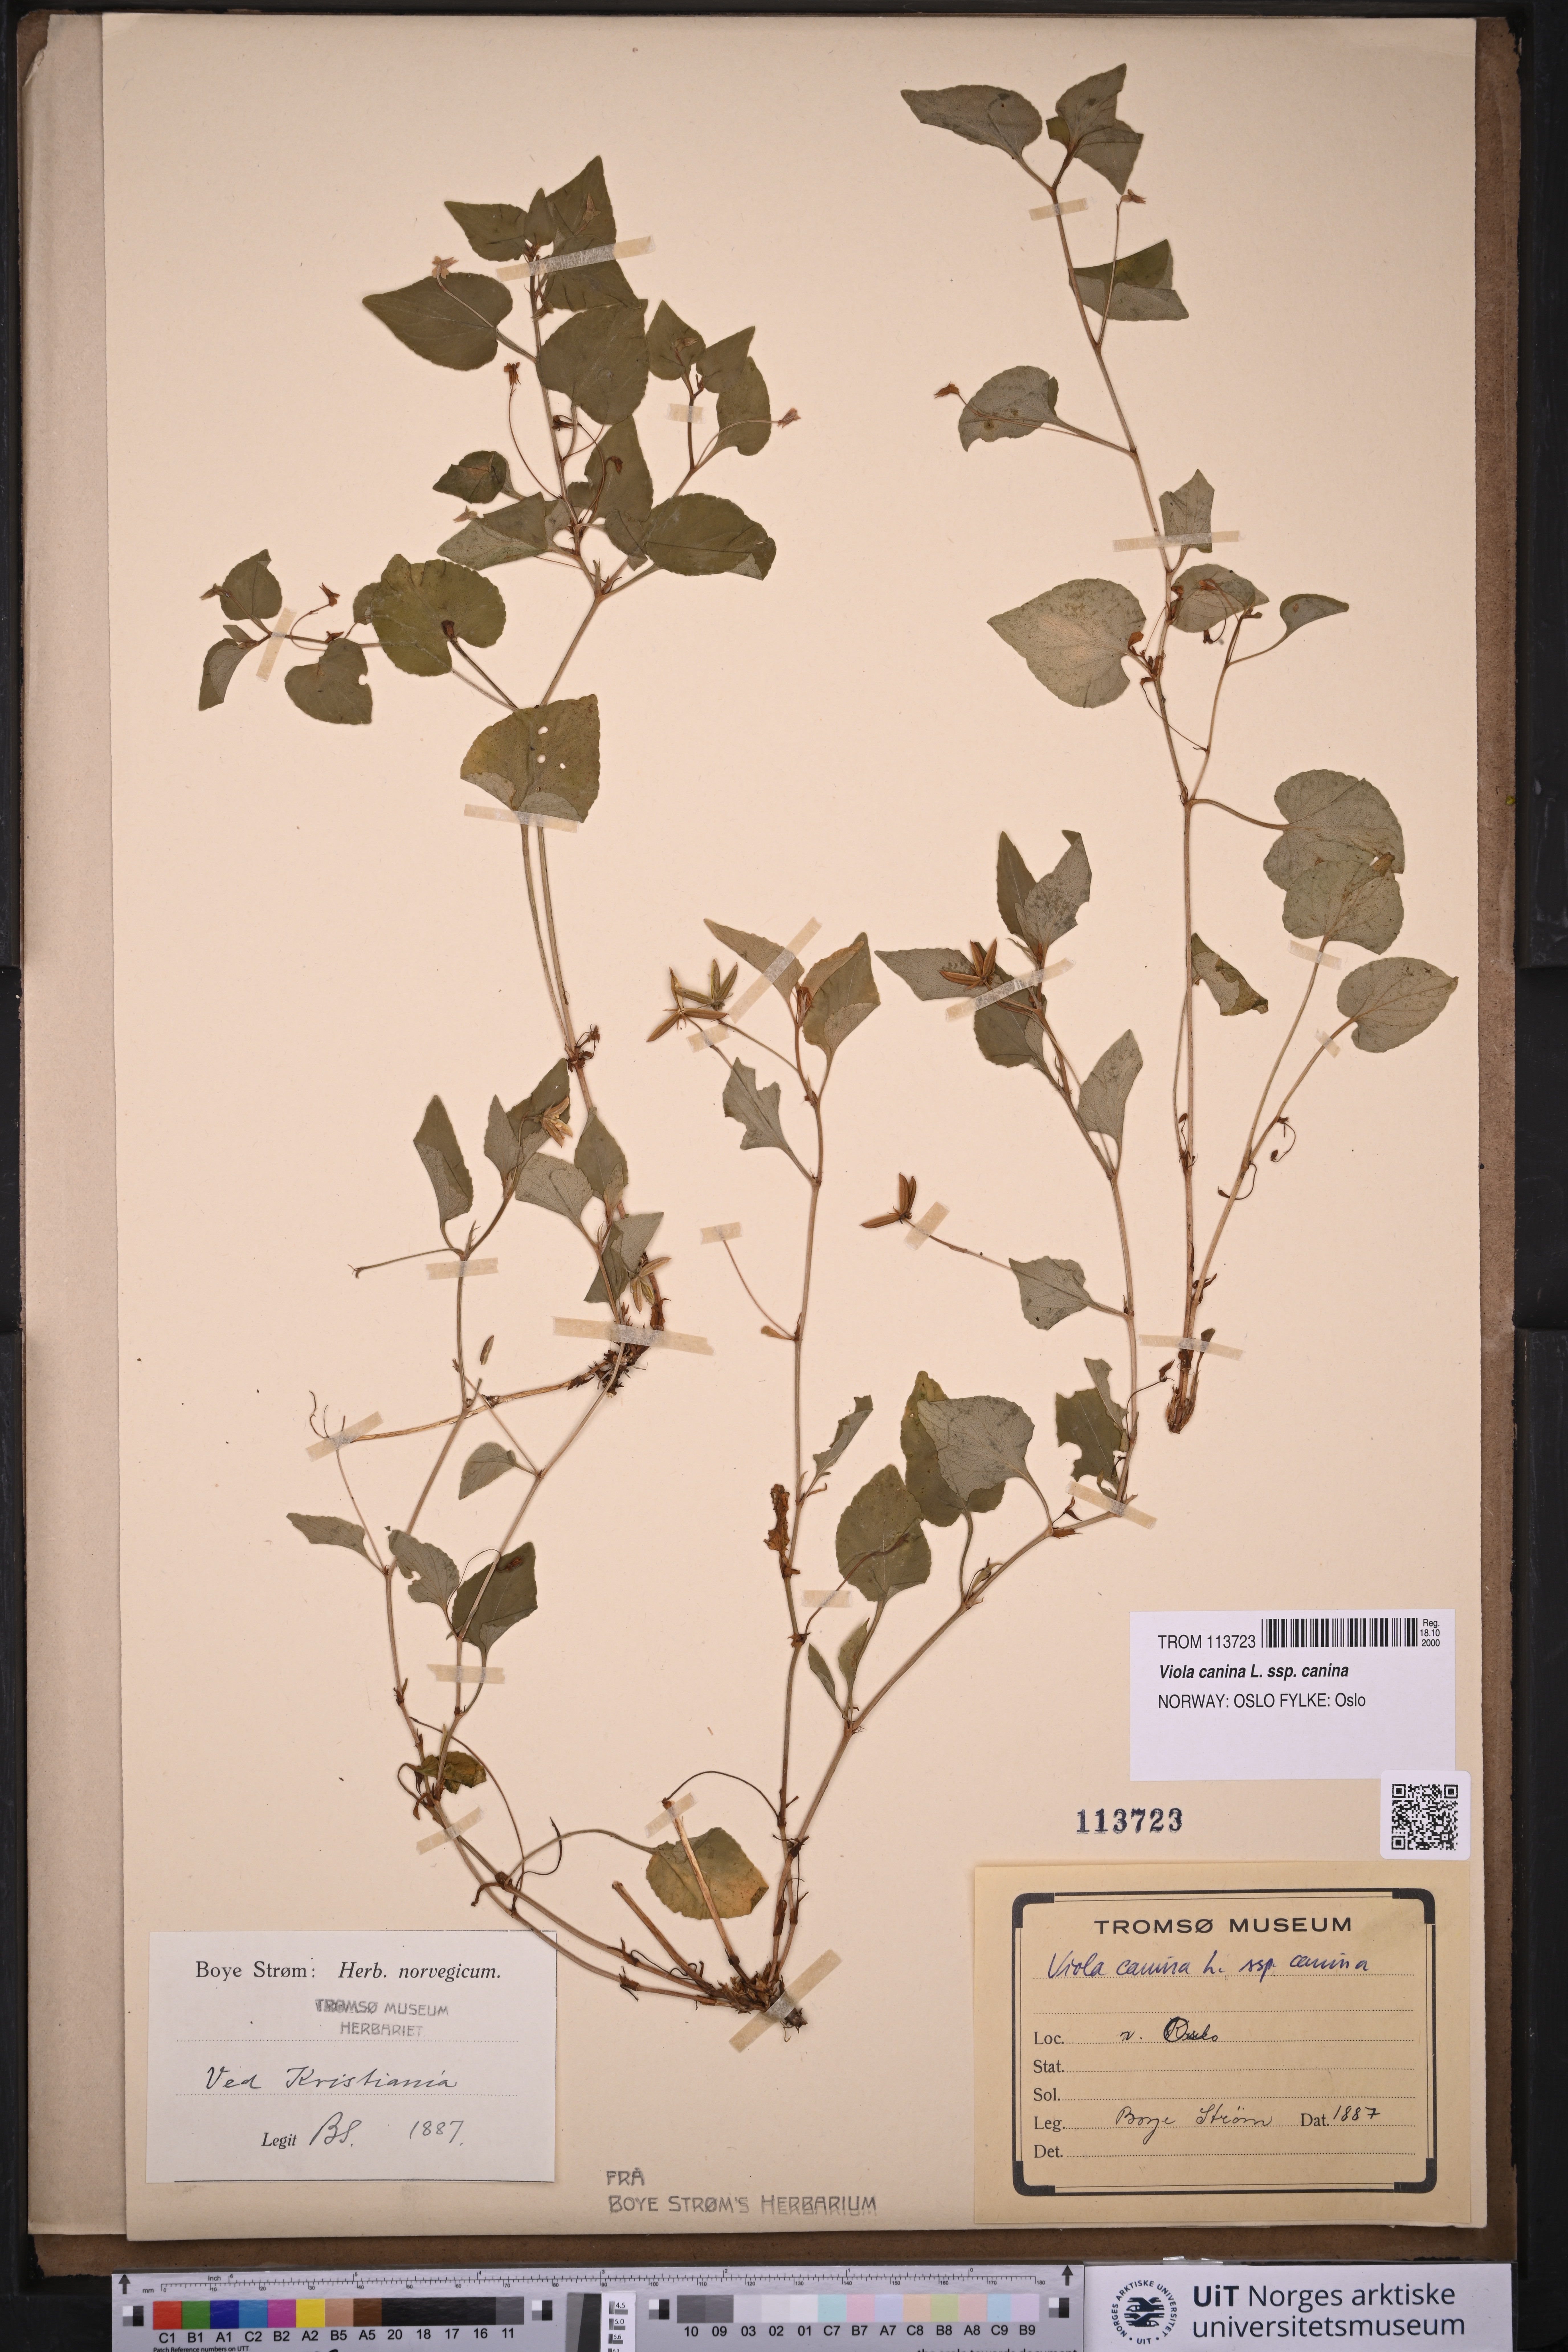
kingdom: Plantae
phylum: Tracheophyta
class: Magnoliopsida
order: Malpighiales
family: Violaceae
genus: Viola
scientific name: Viola canina
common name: Heath dog-violet
